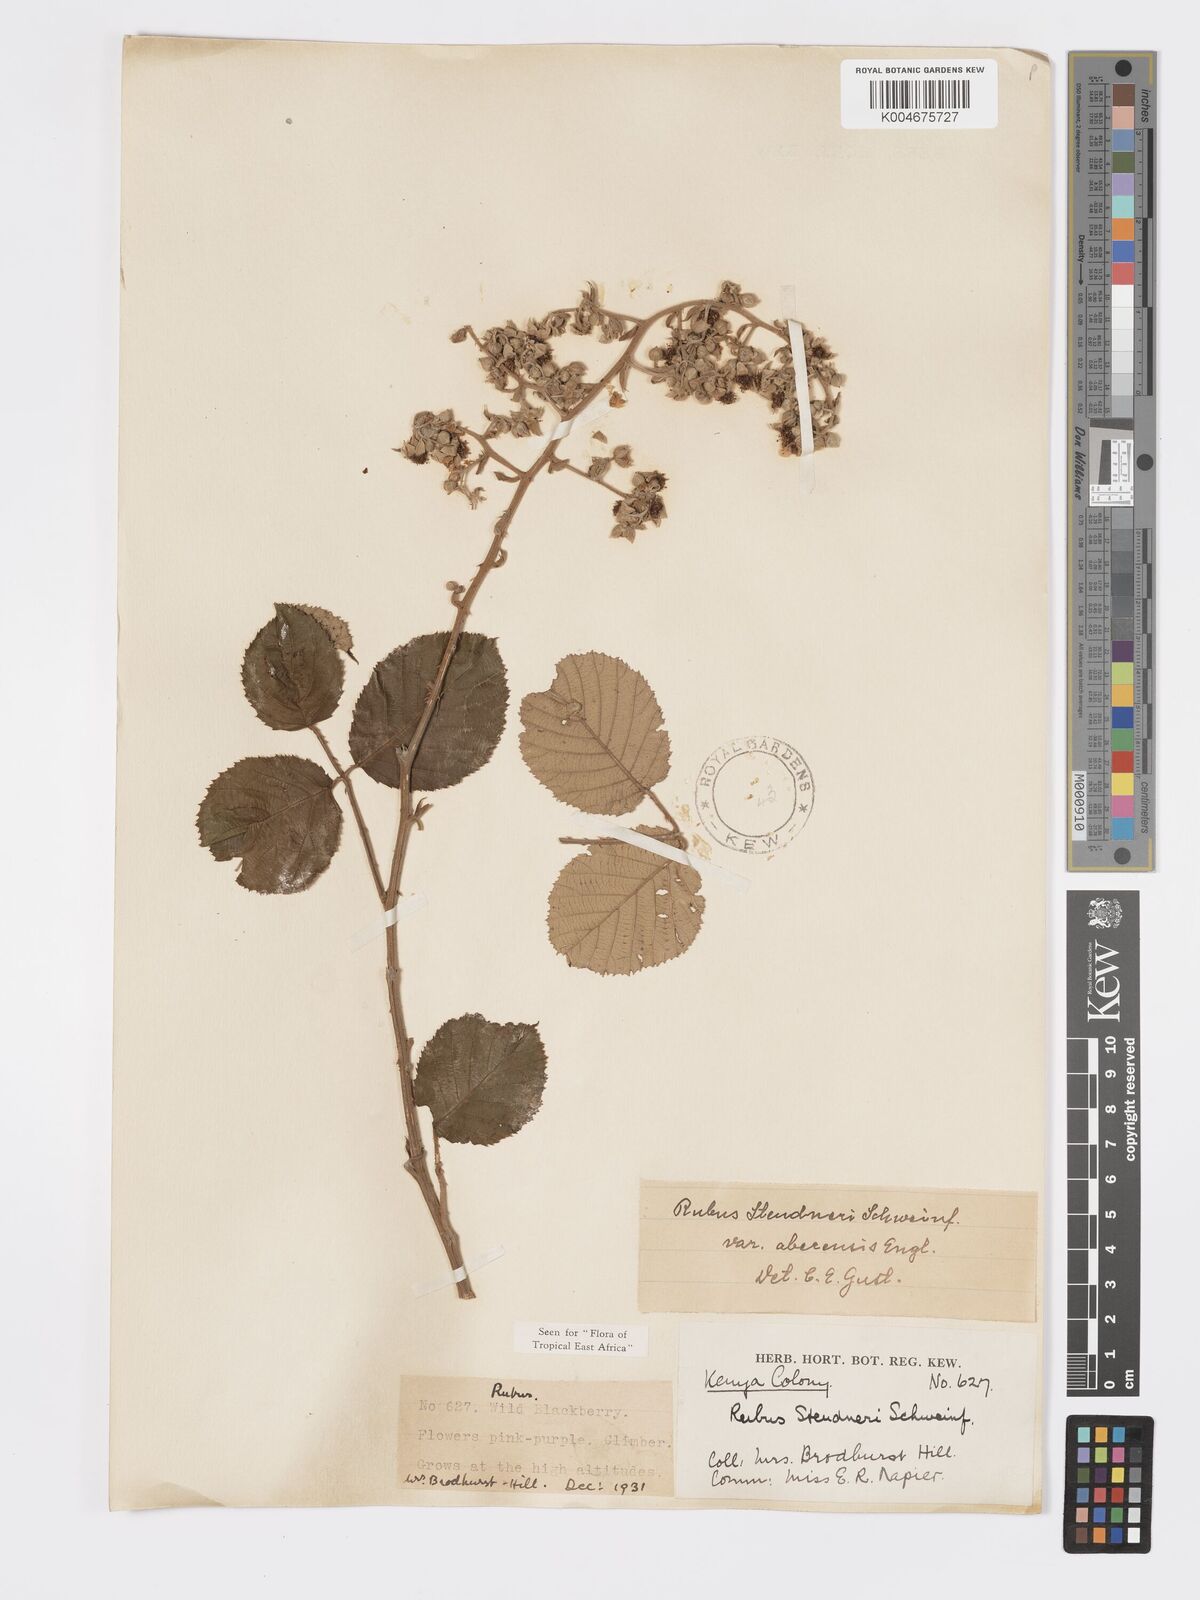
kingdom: Plantae
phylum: Tracheophyta
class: Magnoliopsida
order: Rosales
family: Rosaceae
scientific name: Rosaceae
